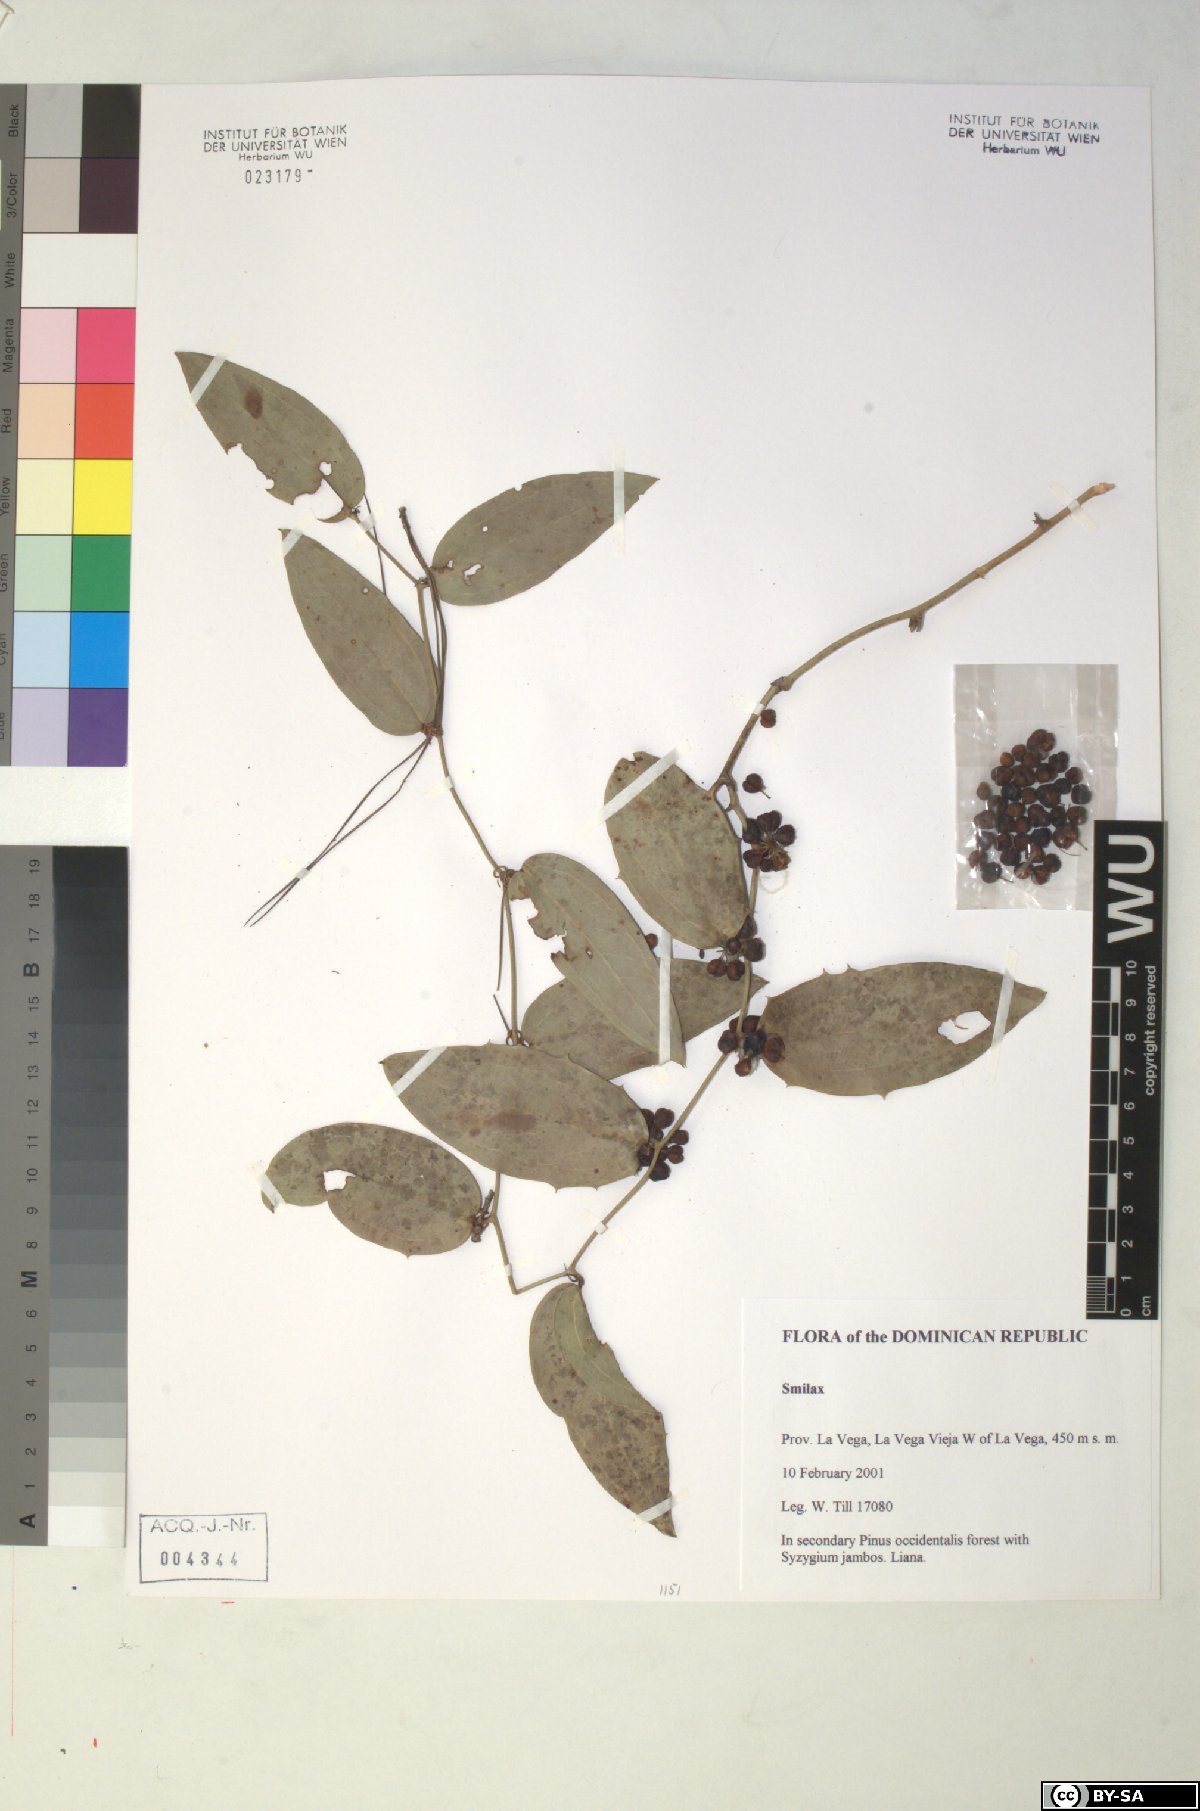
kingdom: Plantae
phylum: Tracheophyta
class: Liliopsida
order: Liliales
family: Smilacaceae
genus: Smilax
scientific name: Smilax
